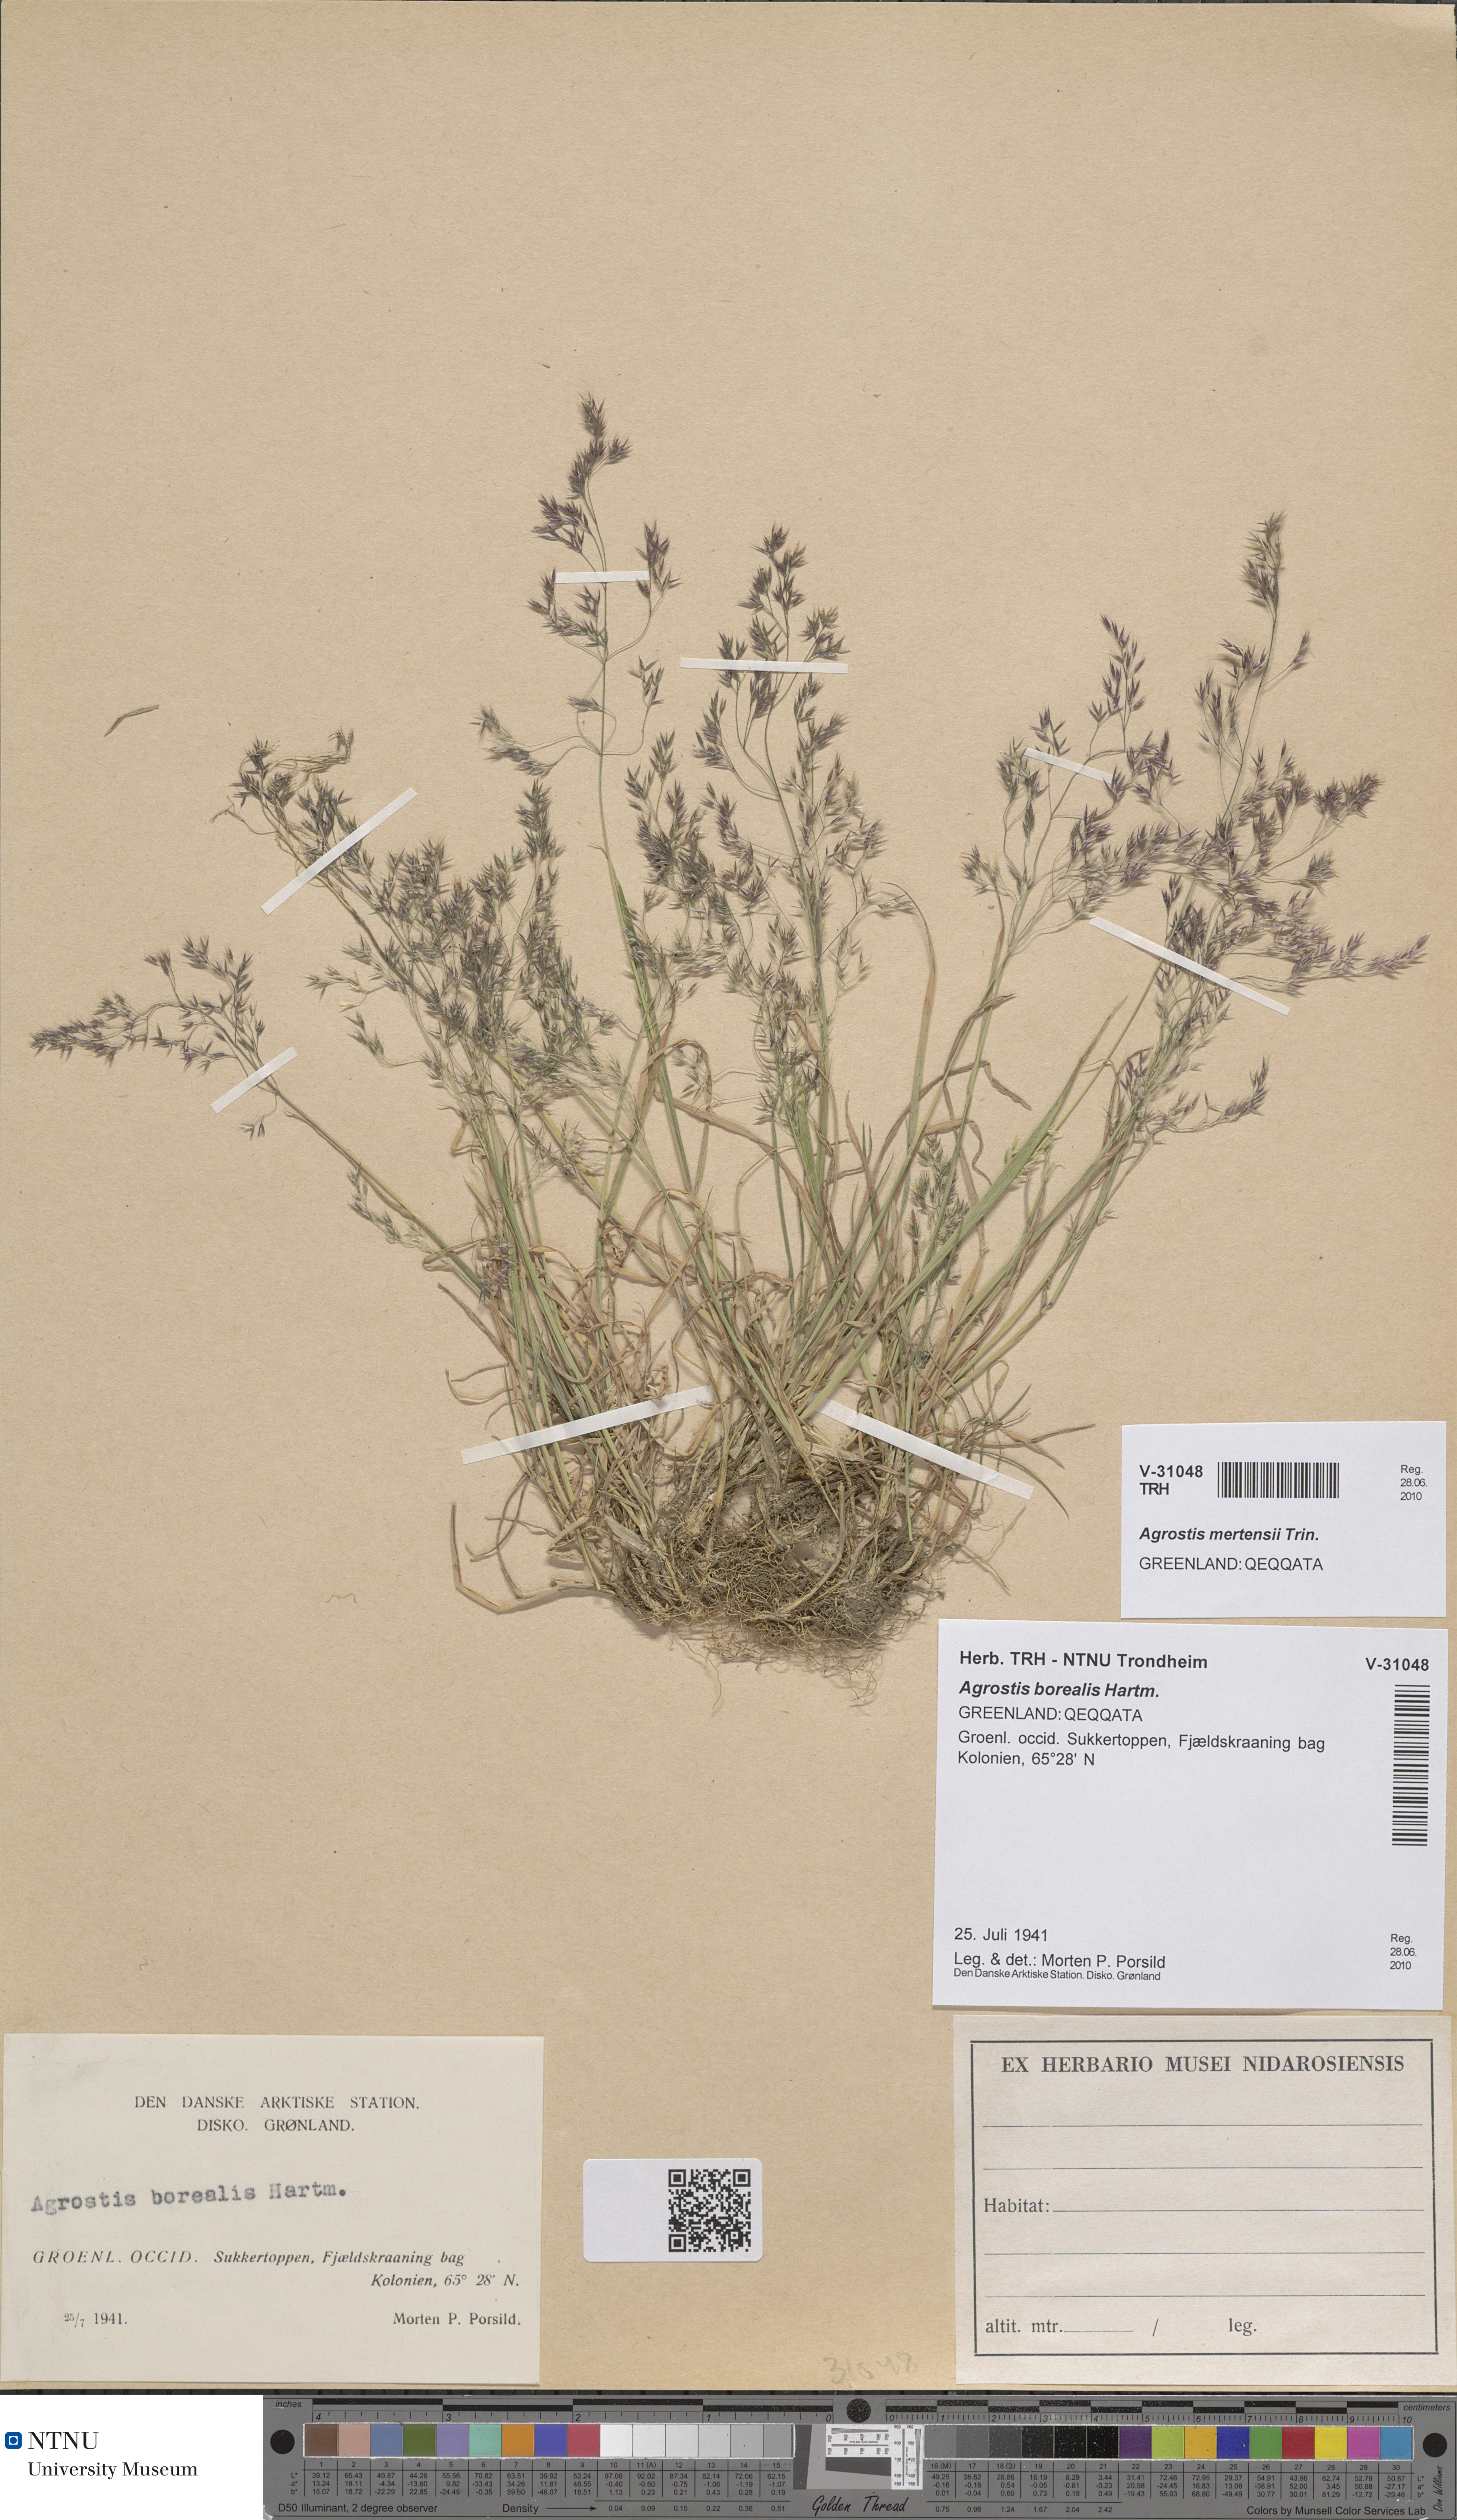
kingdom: Plantae
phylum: Tracheophyta
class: Liliopsida
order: Poales
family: Poaceae
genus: Agrostis
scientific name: Agrostis mertensii
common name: Northern bent
